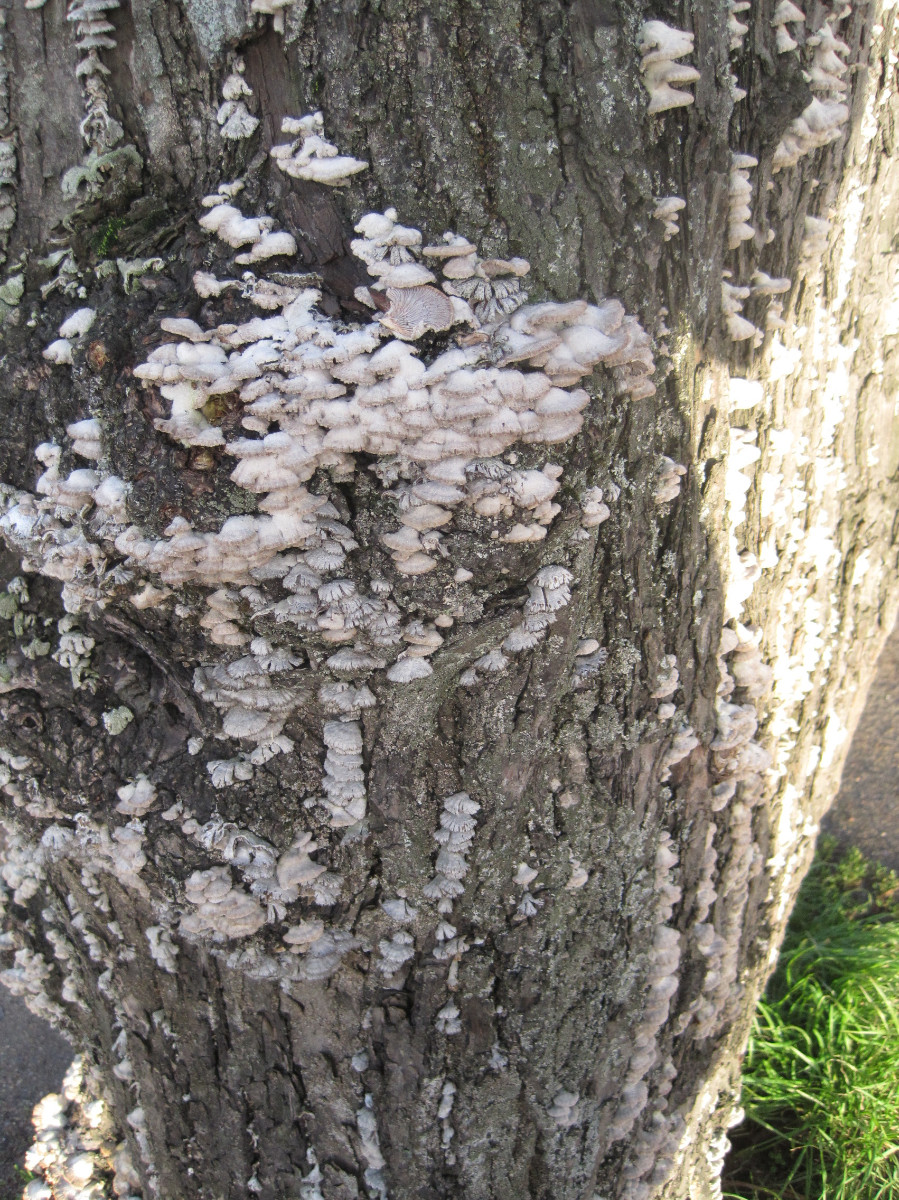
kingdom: Fungi
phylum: Basidiomycota
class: Agaricomycetes
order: Agaricales
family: Schizophyllaceae
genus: Schizophyllum
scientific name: Schizophyllum commune
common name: kløvblad
